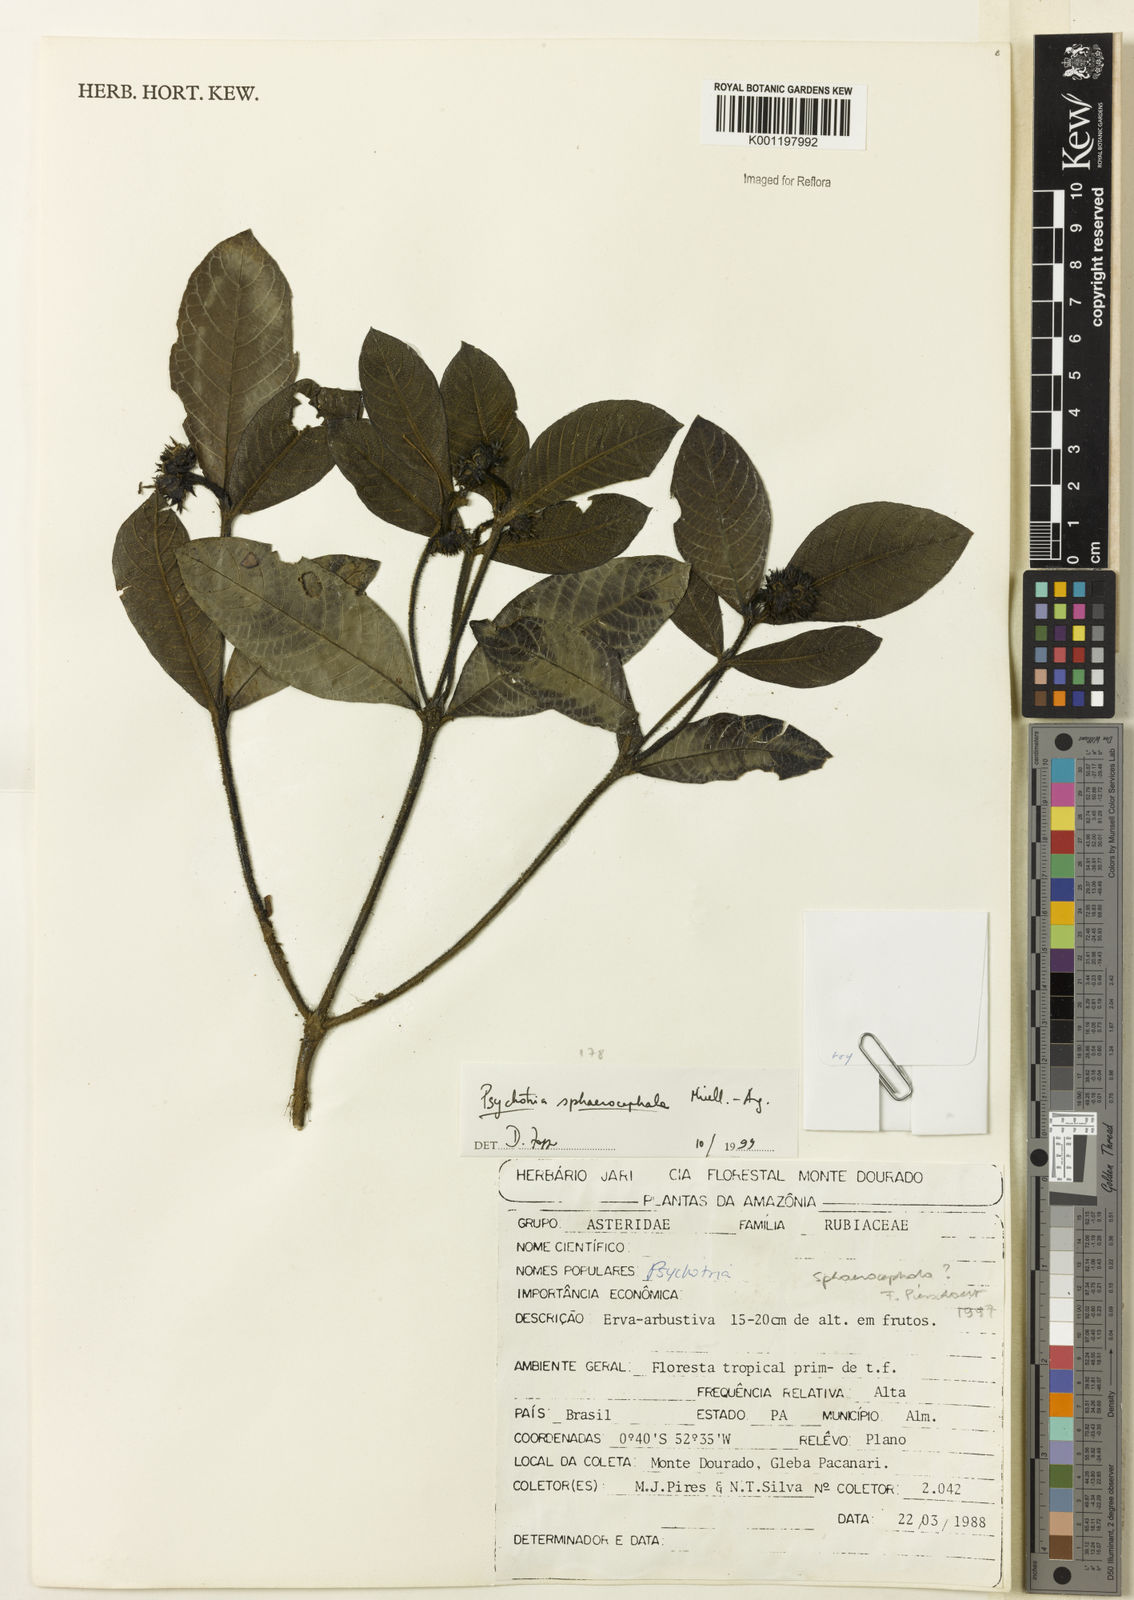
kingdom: Plantae
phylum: Tracheophyta
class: Magnoliopsida
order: Gentianales
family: Rubiaceae
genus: Psychotria
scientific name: Psychotria sphaerocarpa
